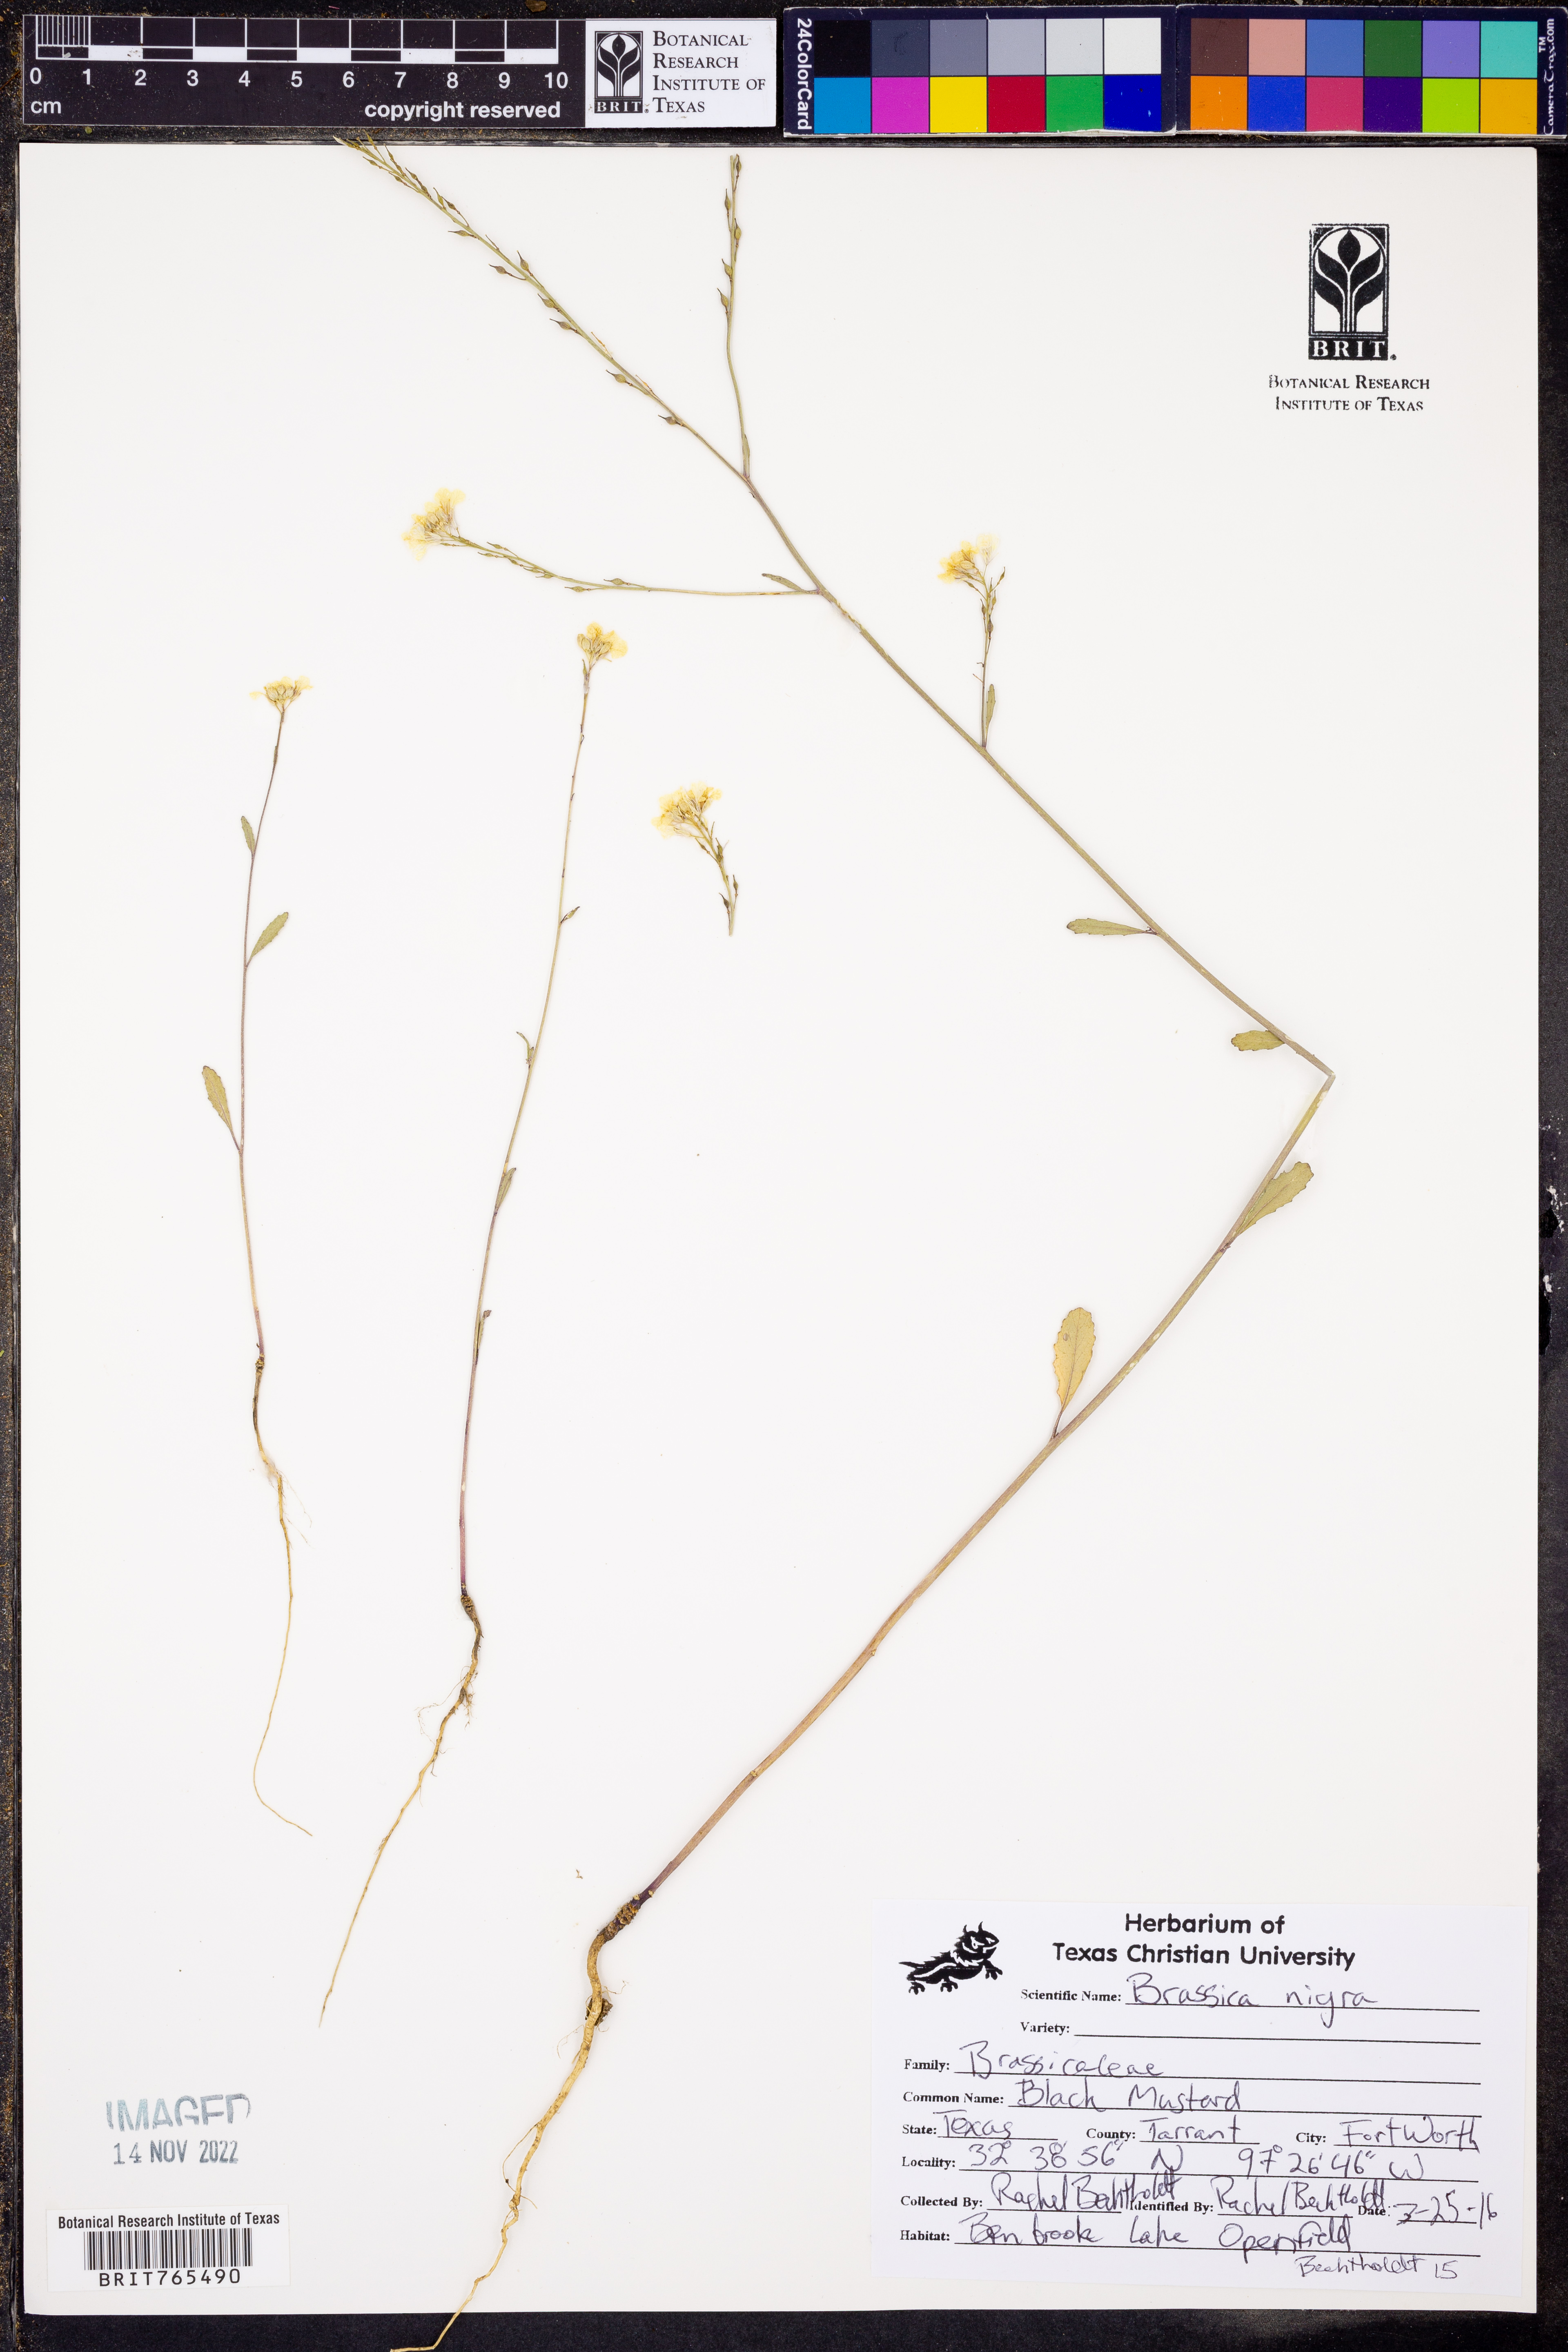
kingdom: Plantae
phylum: Tracheophyta
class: Magnoliopsida
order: Brassicales
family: Brassicaceae
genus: Brassica
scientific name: Brassica nigra
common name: Black mustard
